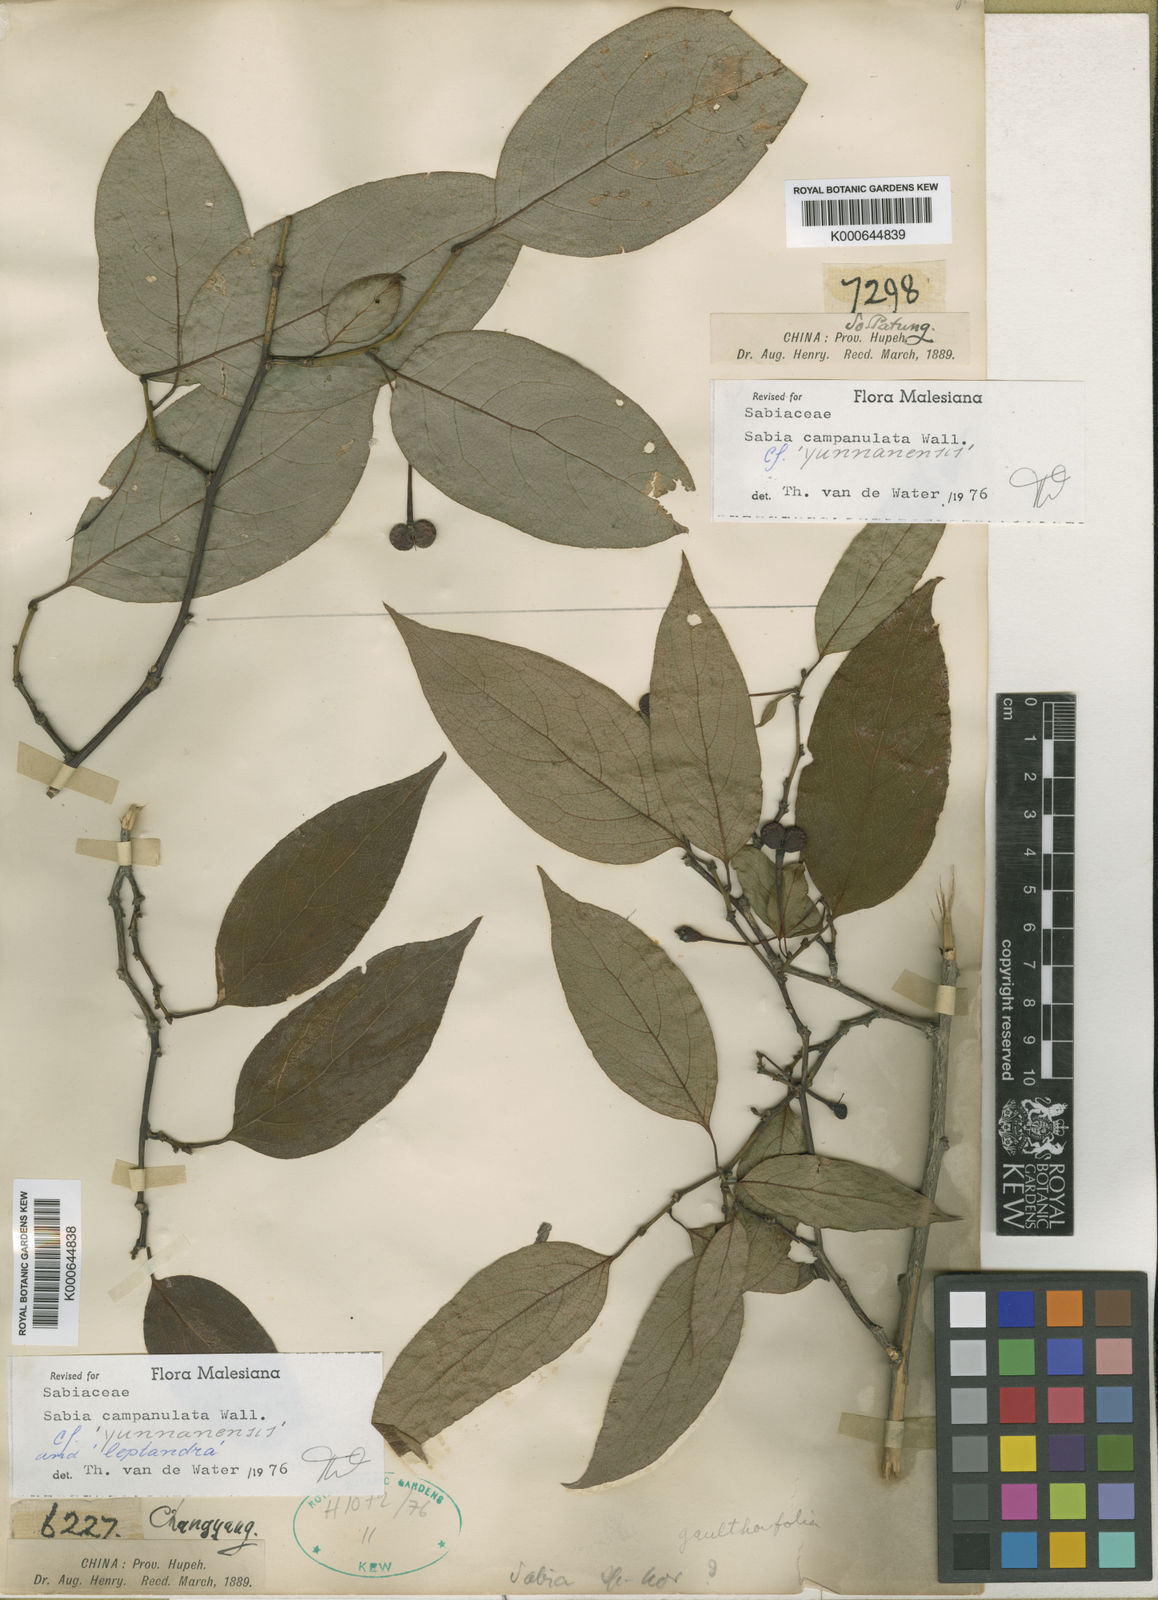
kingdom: Plantae
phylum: Tracheophyta
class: Magnoliopsida
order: Proteales
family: Sabiaceae
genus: Sabia
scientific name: Sabia campanulata
